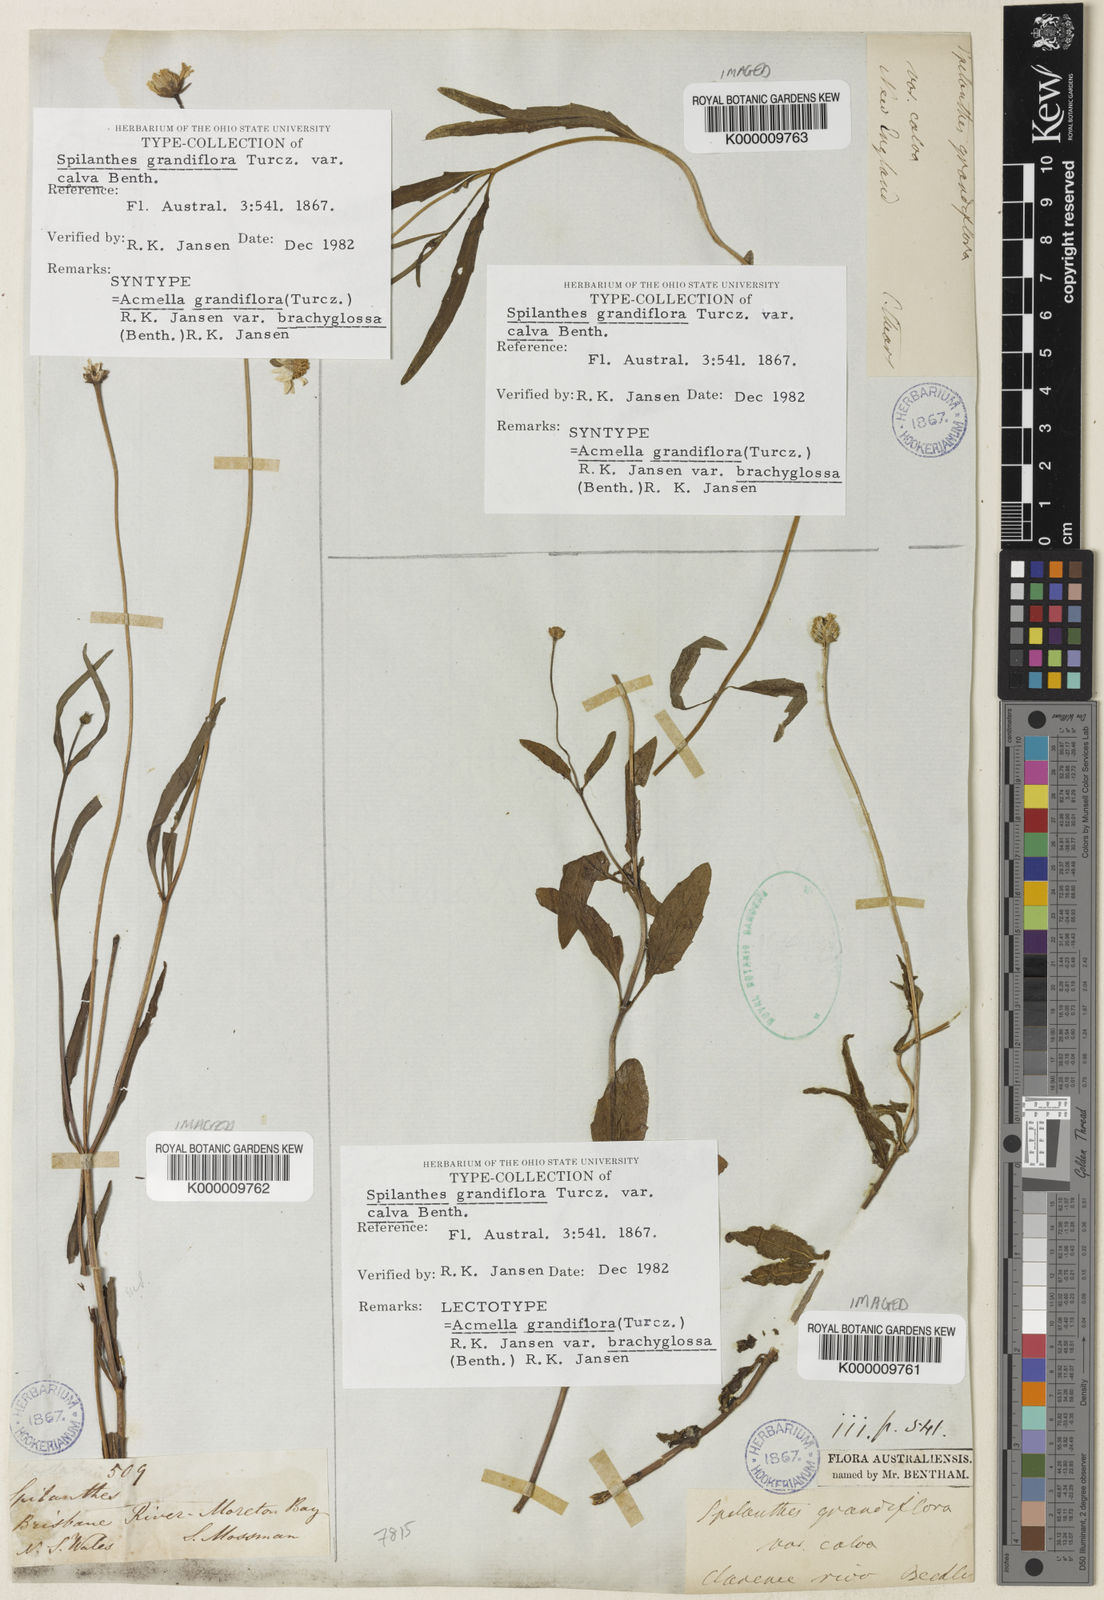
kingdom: Plantae
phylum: Tracheophyta
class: Magnoliopsida
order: Asterales
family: Asteraceae
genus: Acmella
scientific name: Acmella grandiflora
